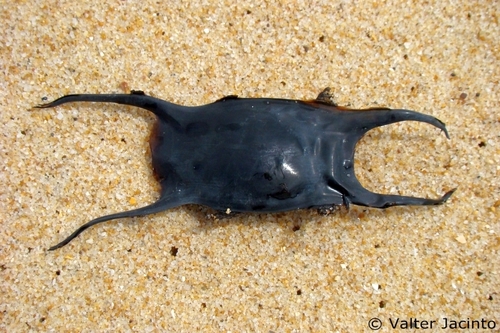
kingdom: Animalia
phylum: Chordata
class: Elasmobranchii
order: Rajiformes
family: Rajidae
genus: Raja
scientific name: Raja undulata
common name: Undulate ray
